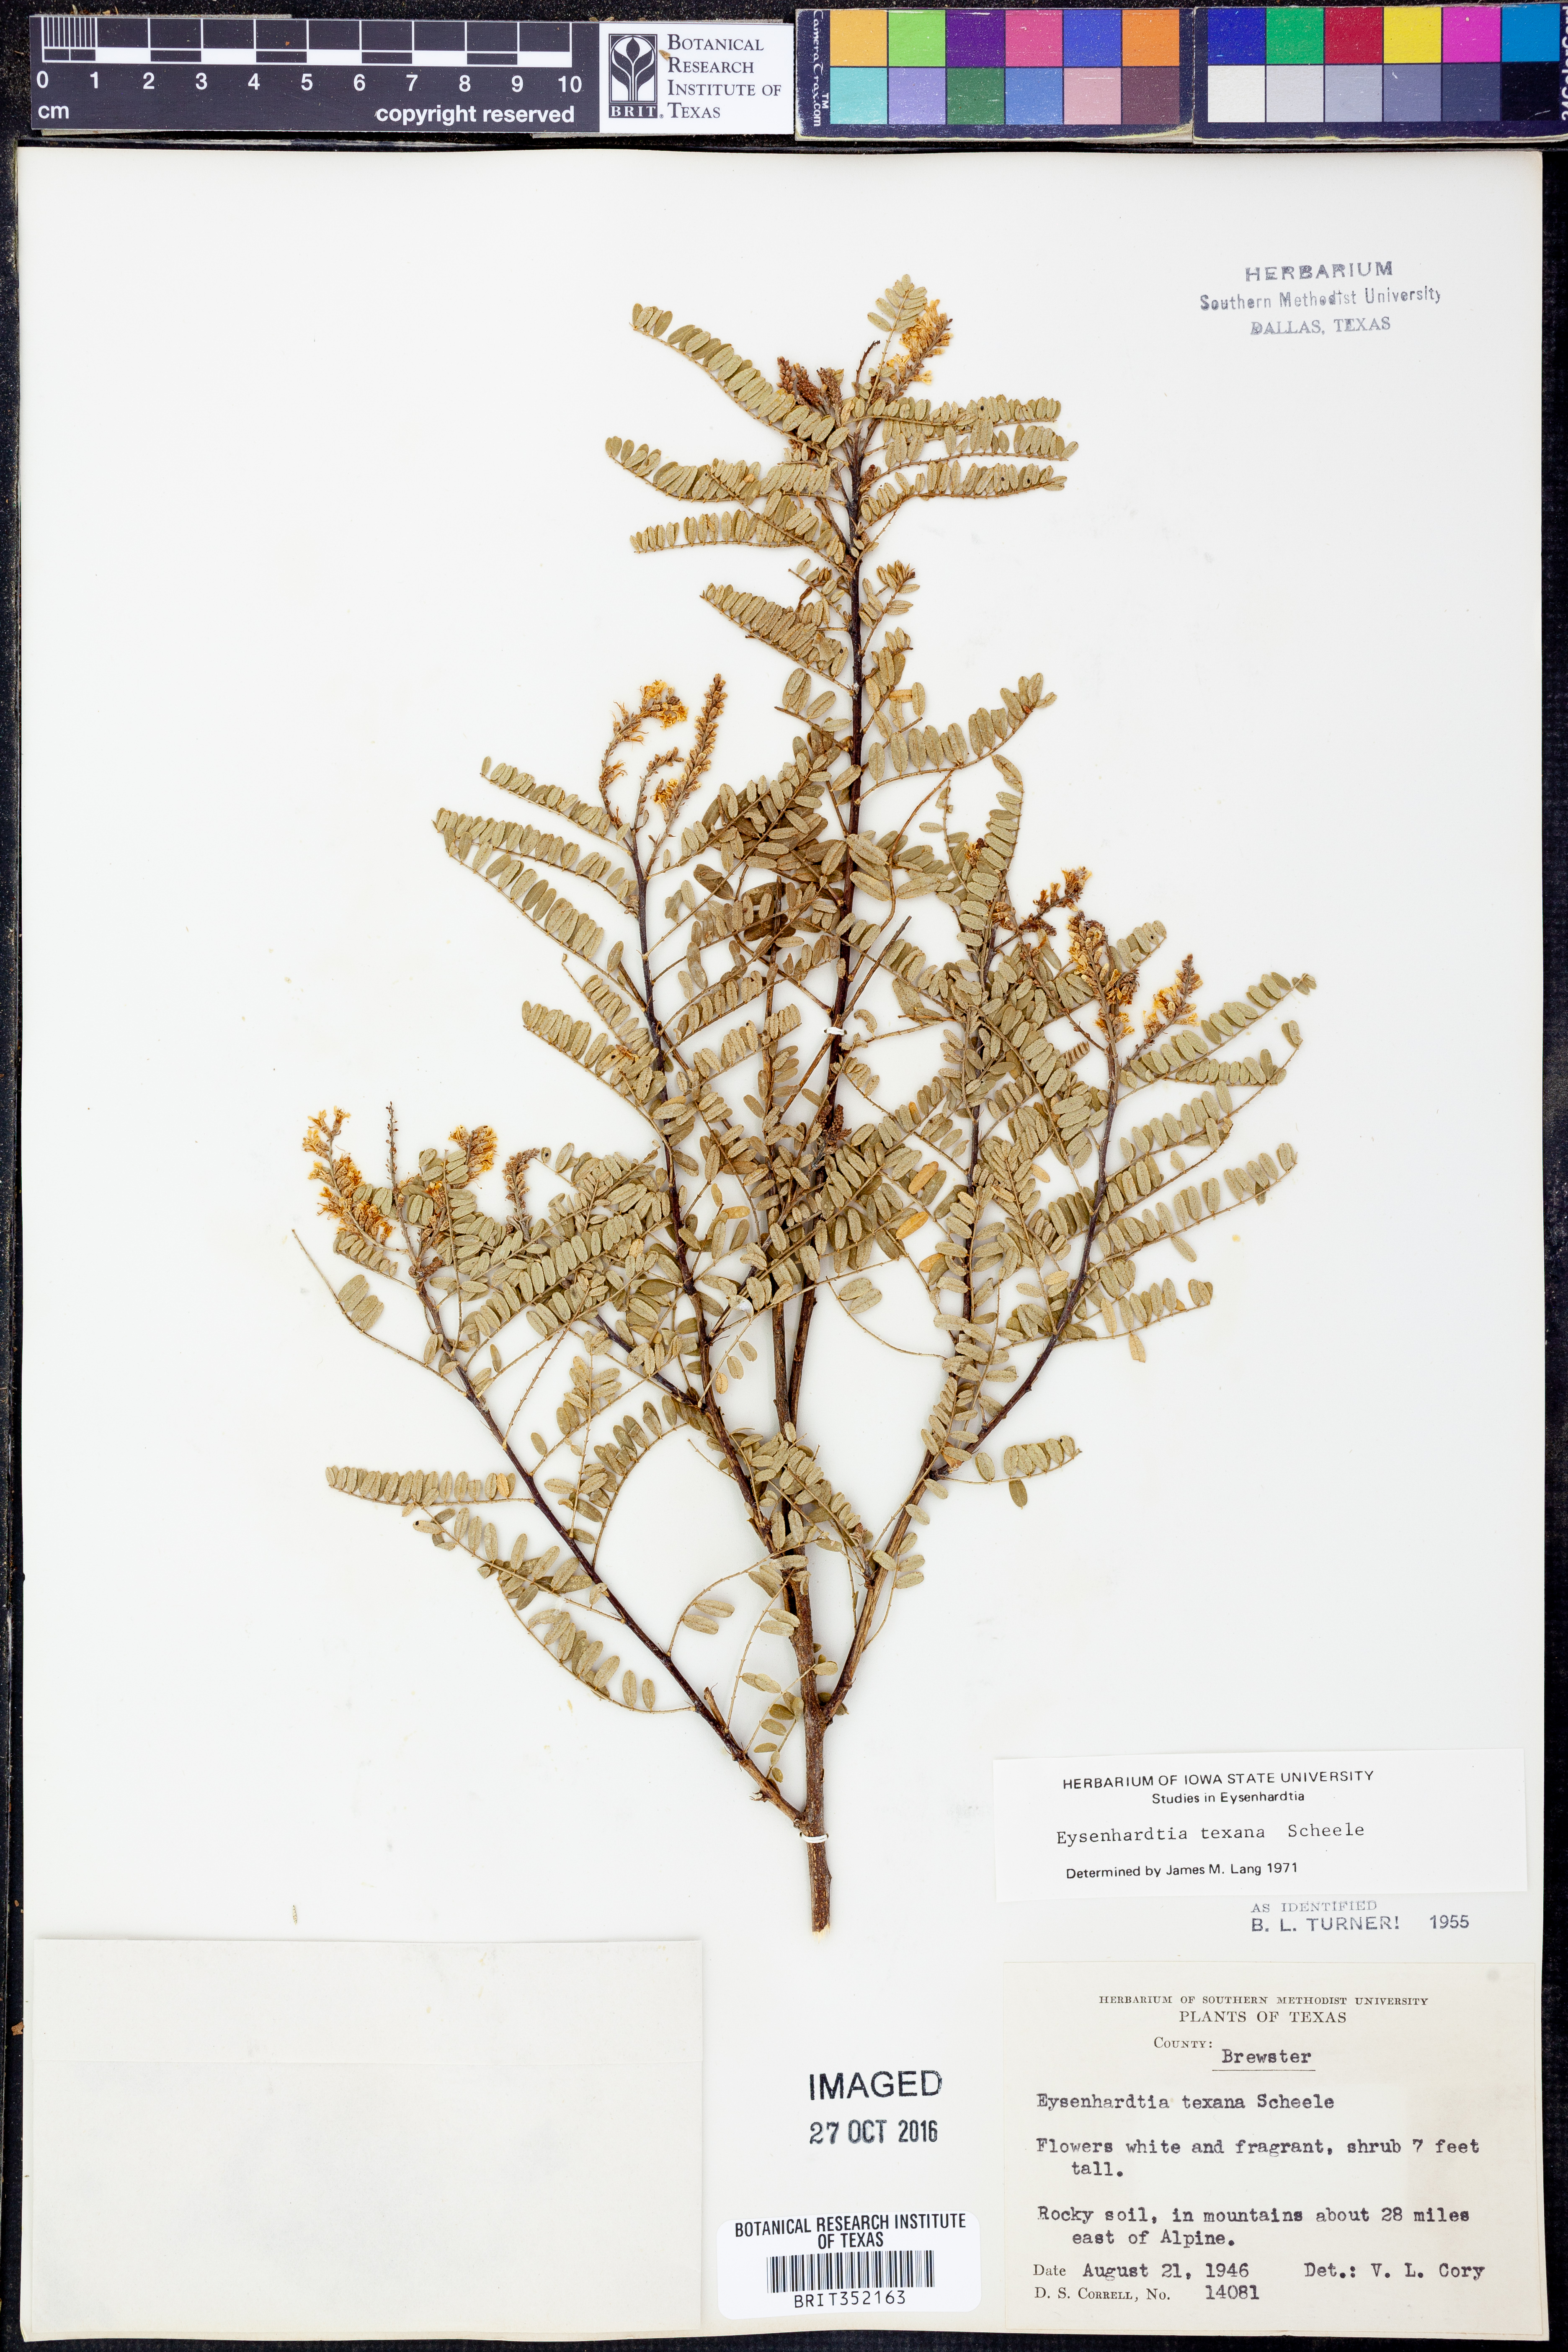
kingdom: Plantae
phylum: Tracheophyta
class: Magnoliopsida
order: Fabales
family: Fabaceae
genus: Eysenhardtia
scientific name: Eysenhardtia texana
